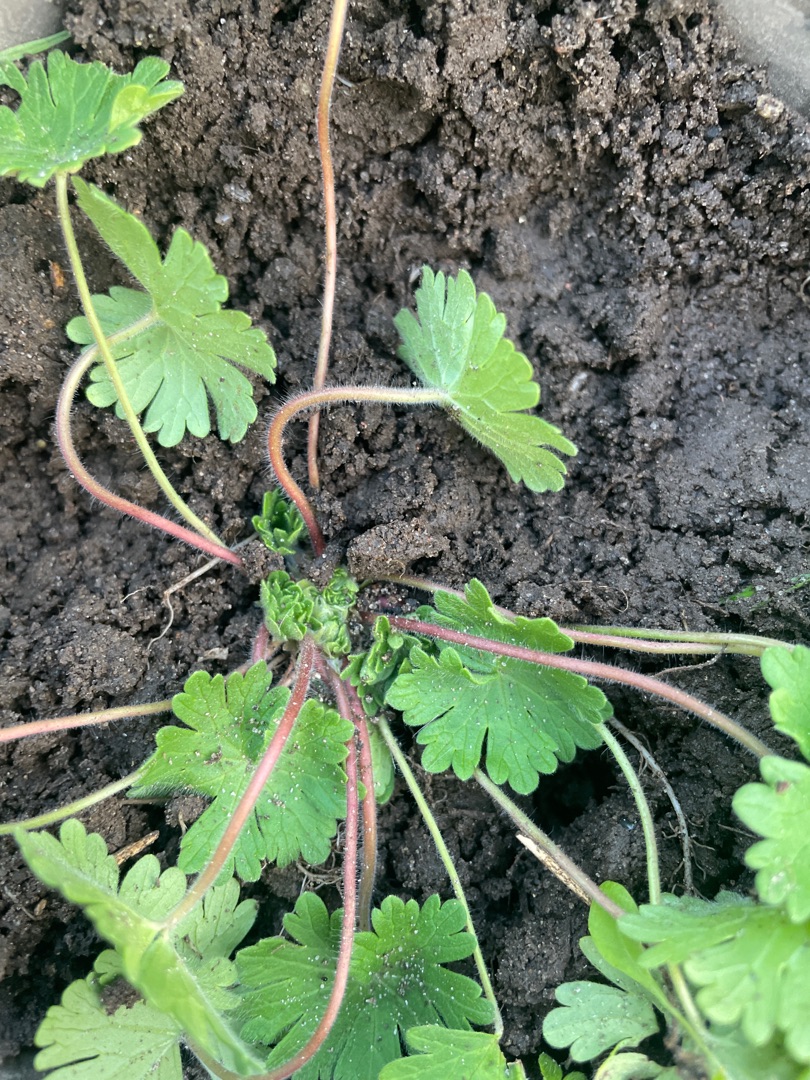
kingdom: Plantae
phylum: Tracheophyta
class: Magnoliopsida
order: Geraniales
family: Geraniaceae
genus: Geranium
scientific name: Geranium molle
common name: Blød storkenæb
